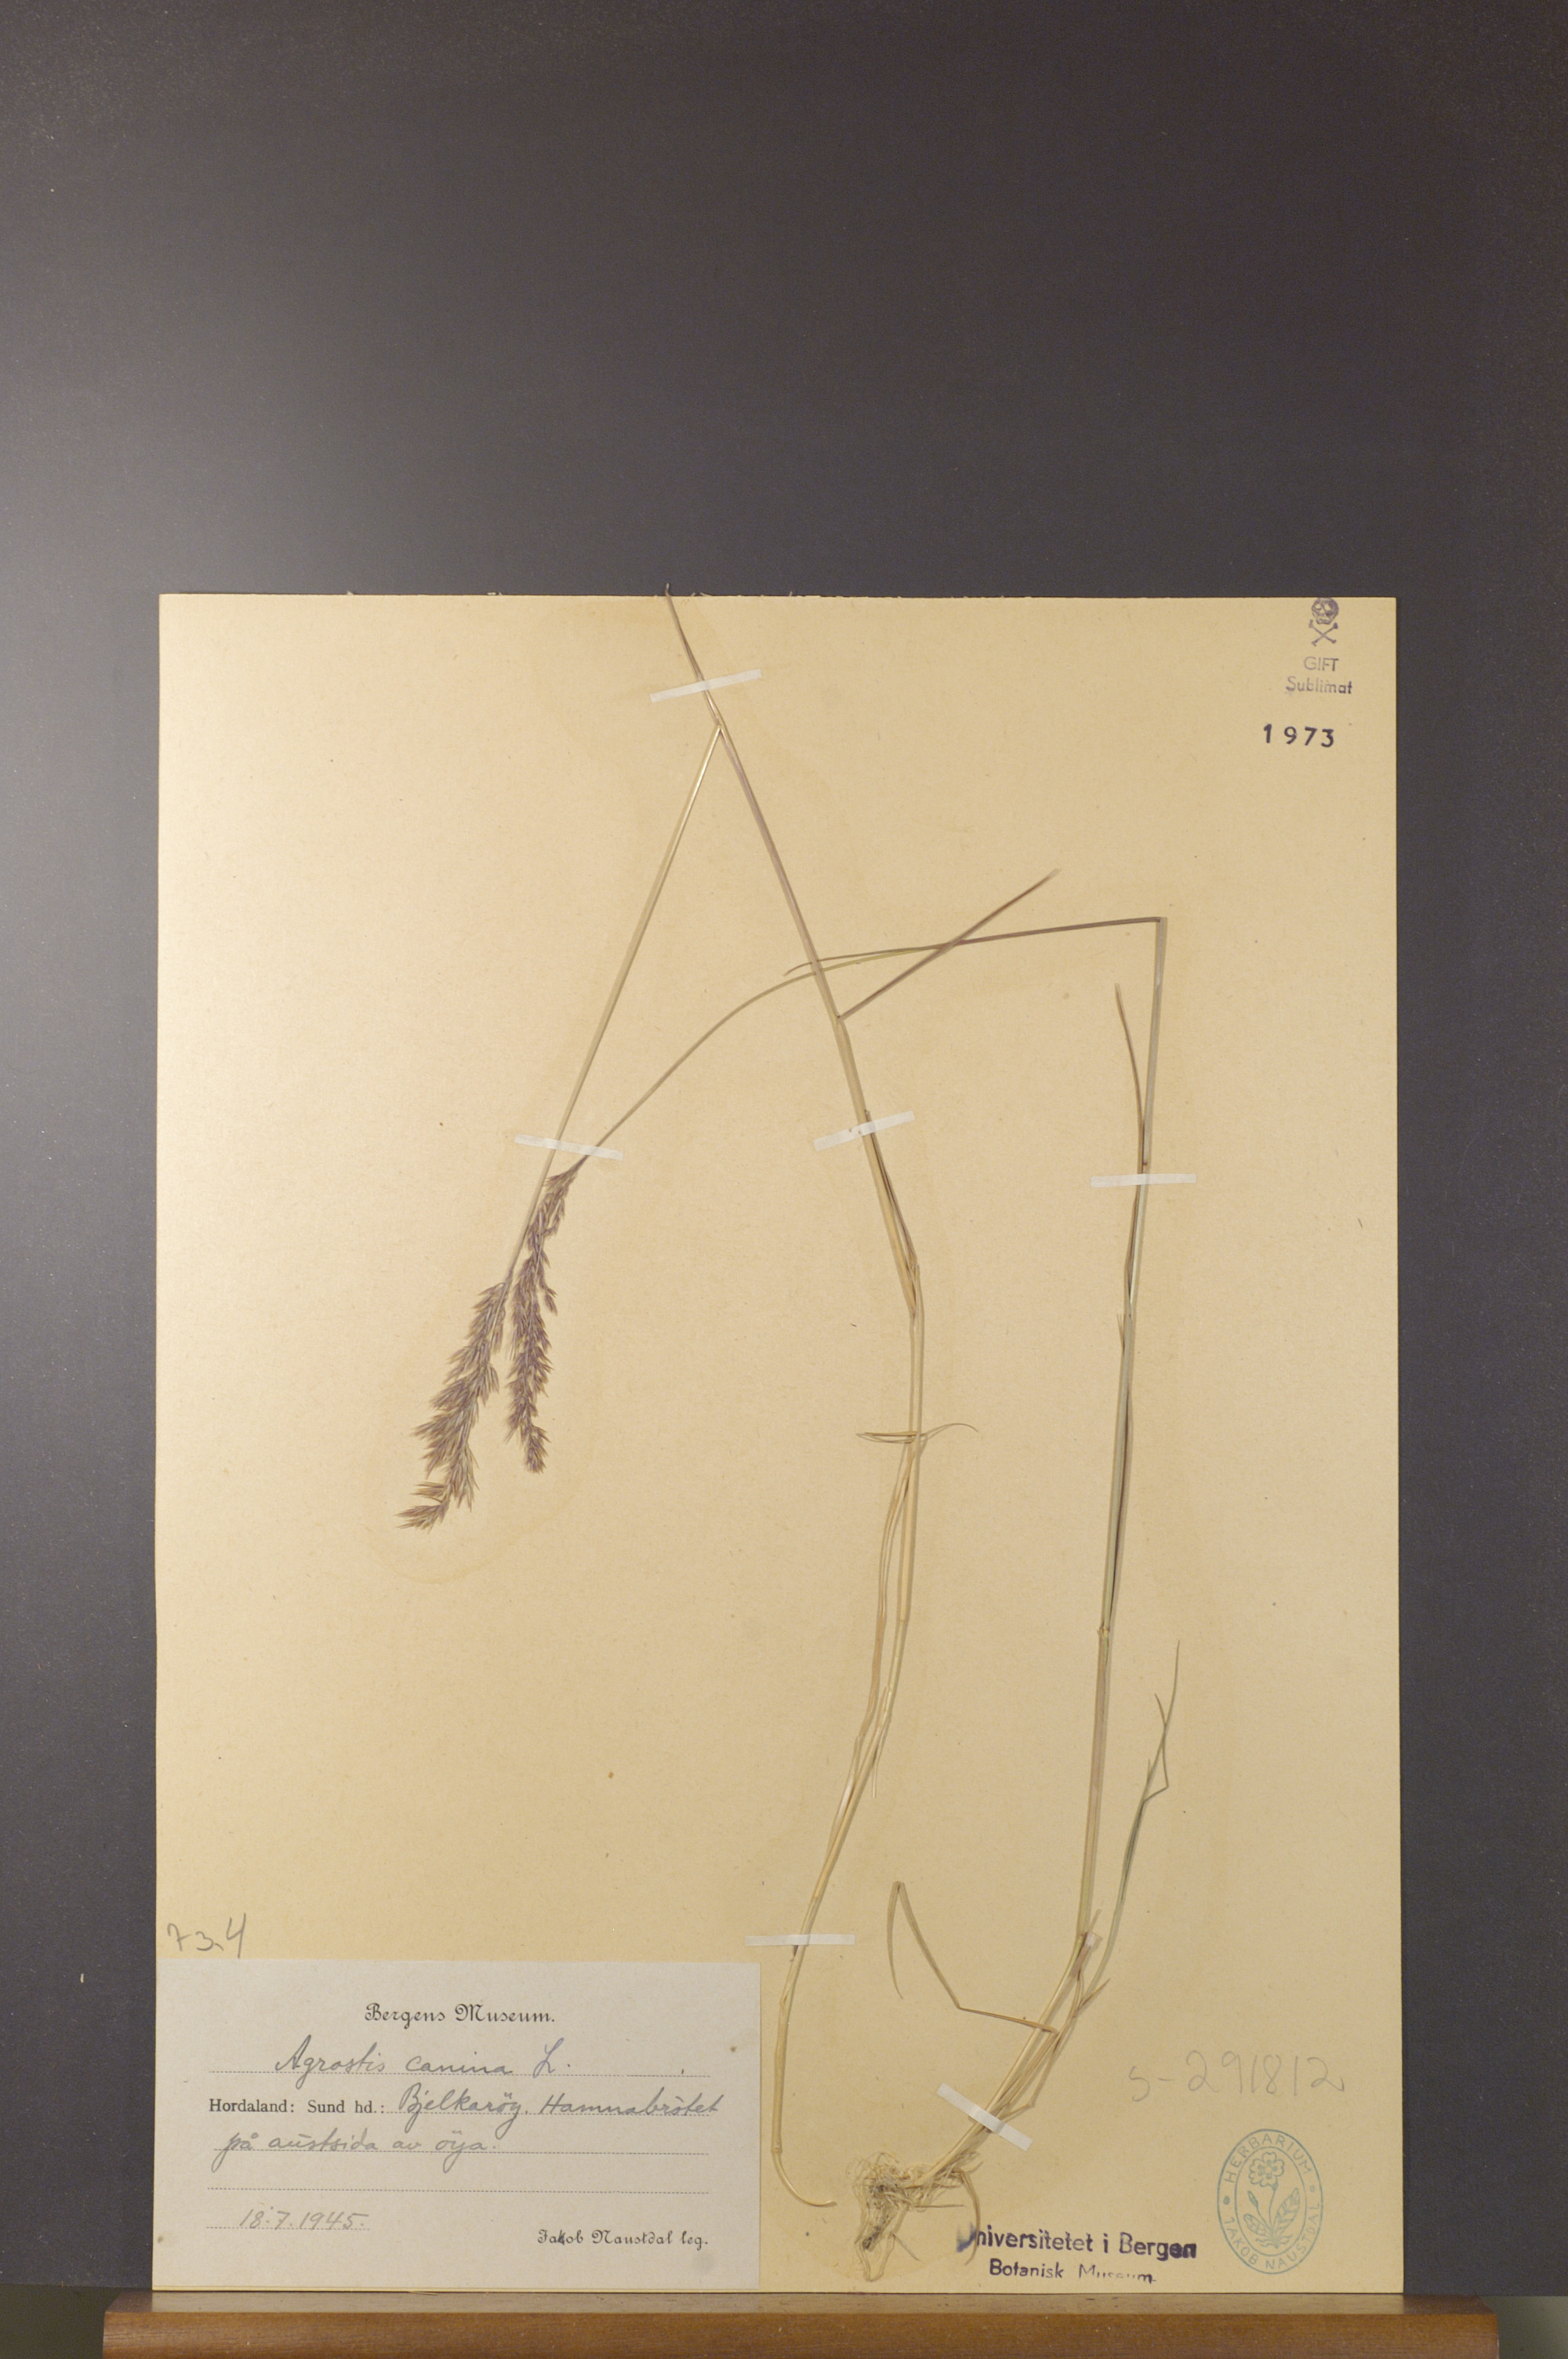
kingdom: Plantae
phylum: Tracheophyta
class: Liliopsida
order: Poales
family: Poaceae
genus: Agrostis
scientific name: Agrostis canina
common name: Velvet bent
